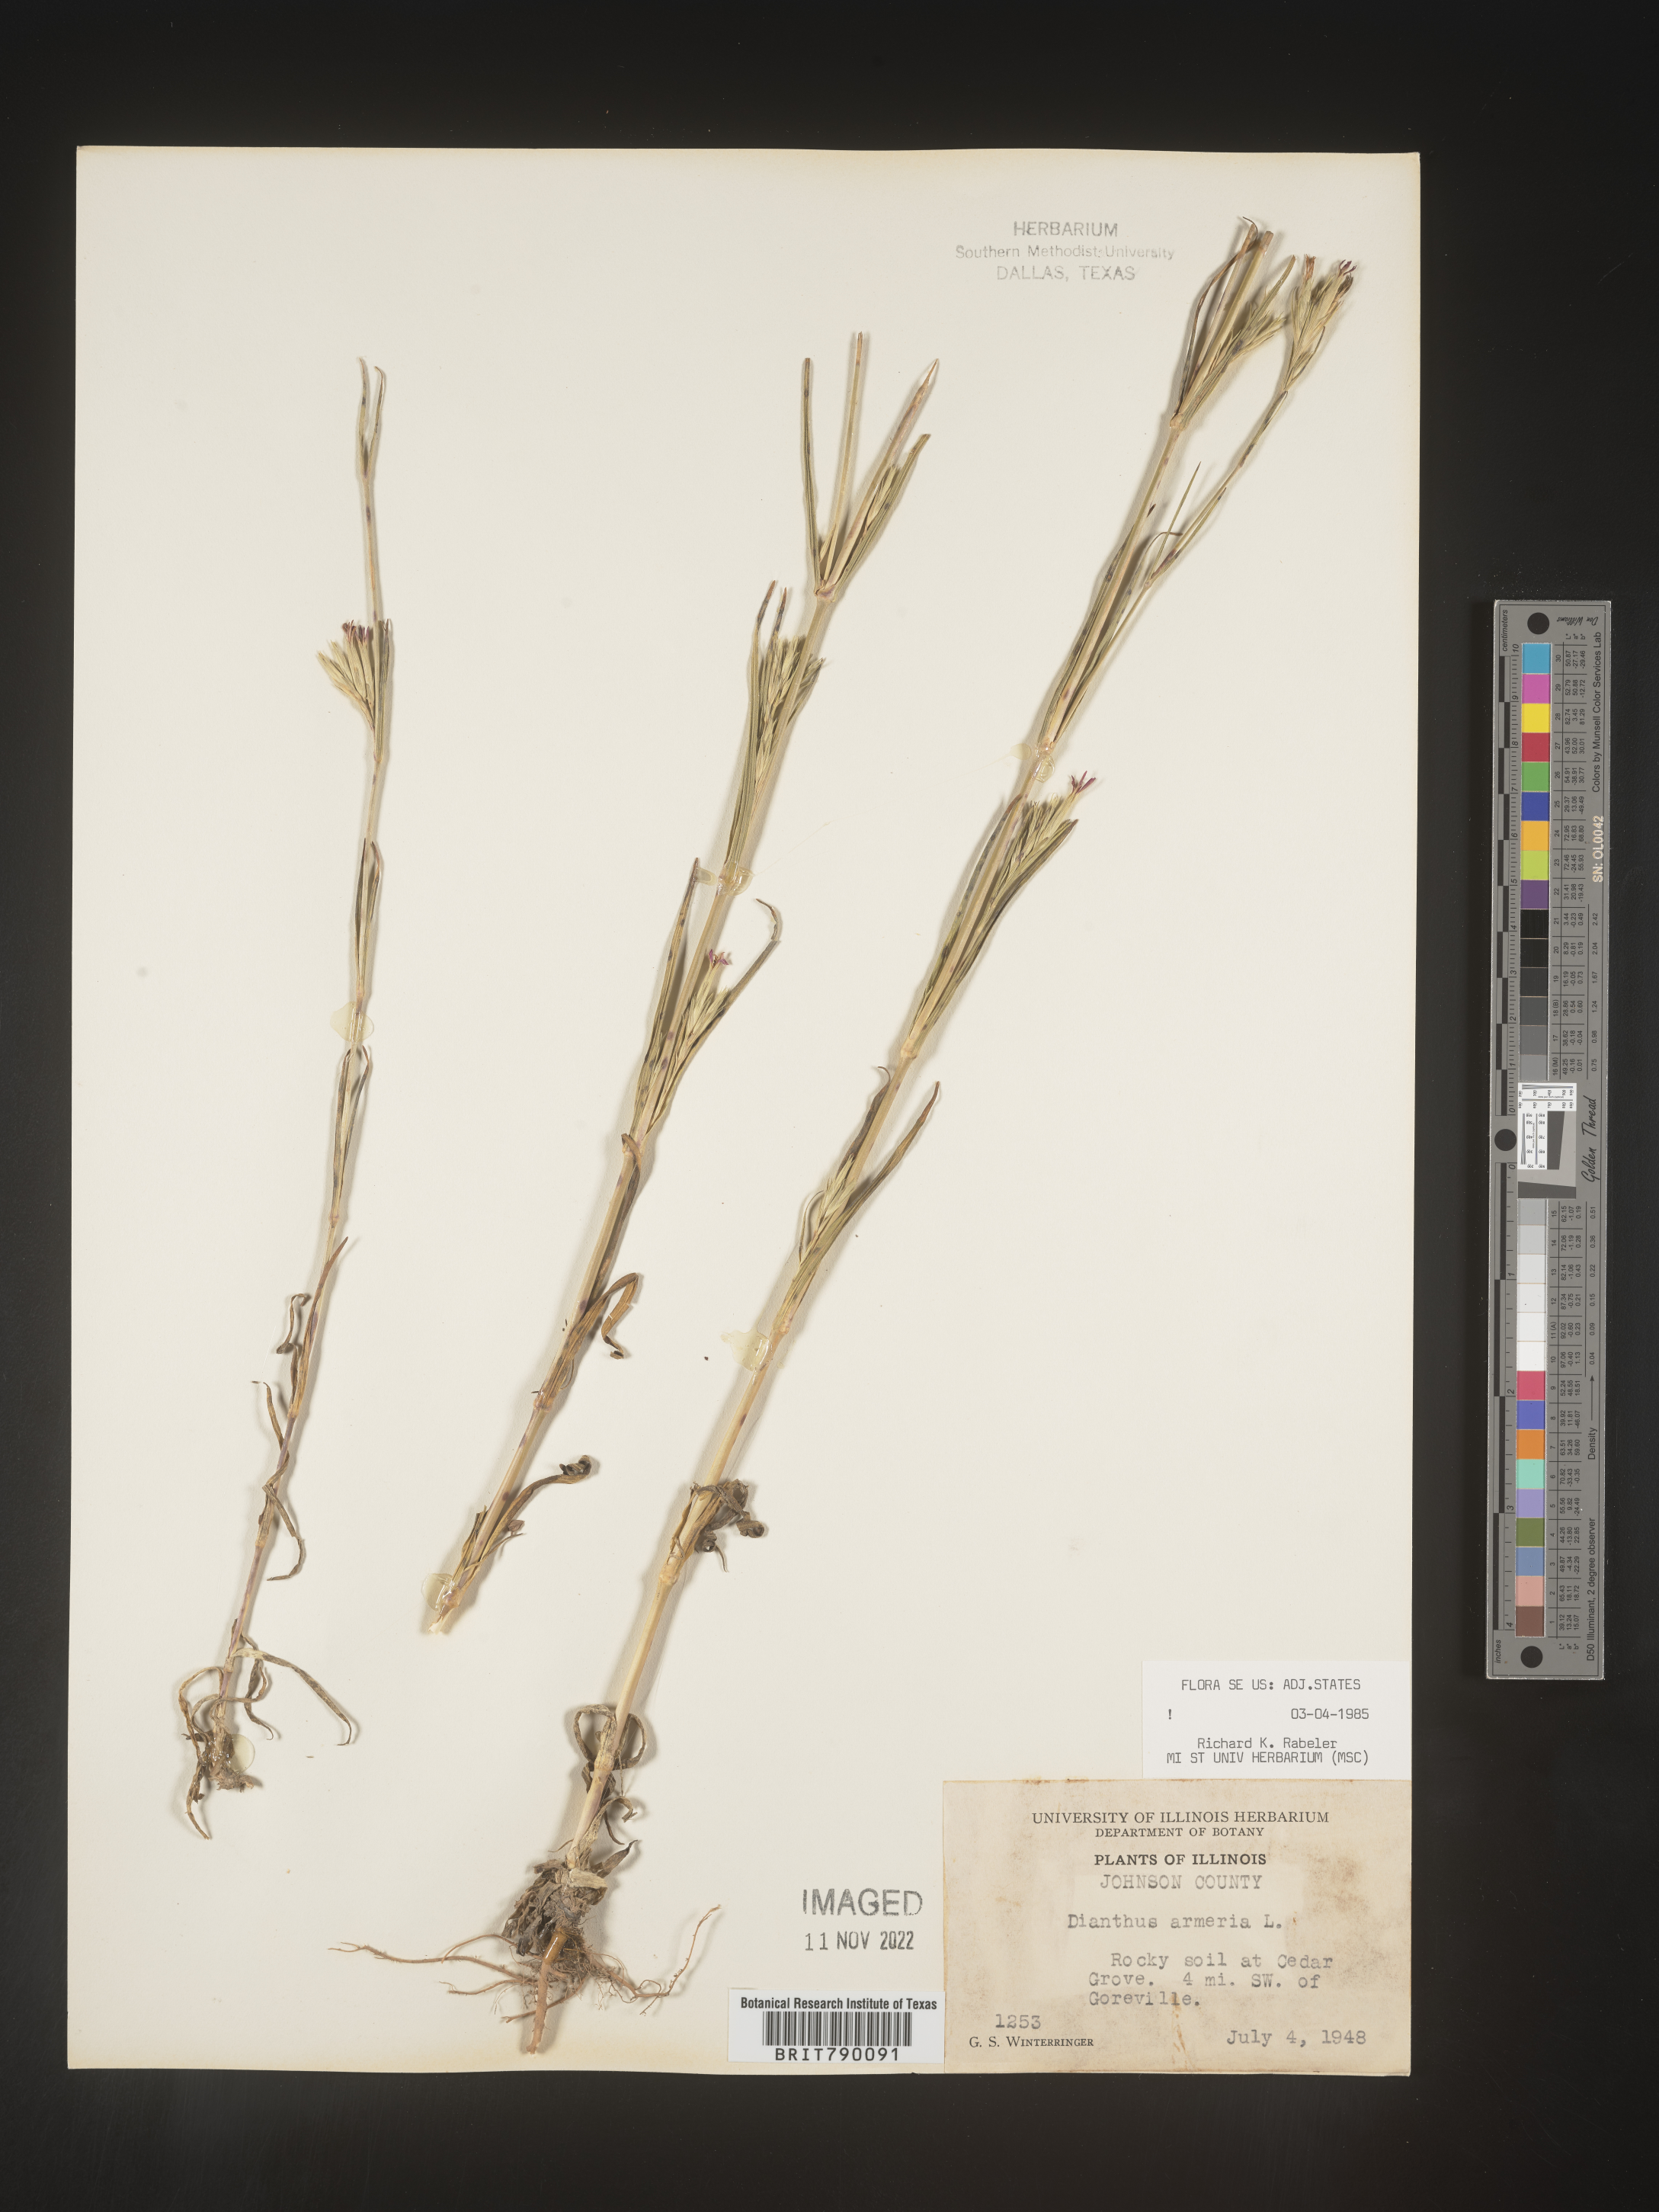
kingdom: Plantae
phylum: Tracheophyta
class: Magnoliopsida
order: Caryophyllales
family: Caryophyllaceae
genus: Dianthus
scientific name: Dianthus armeria
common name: Deptford pink
